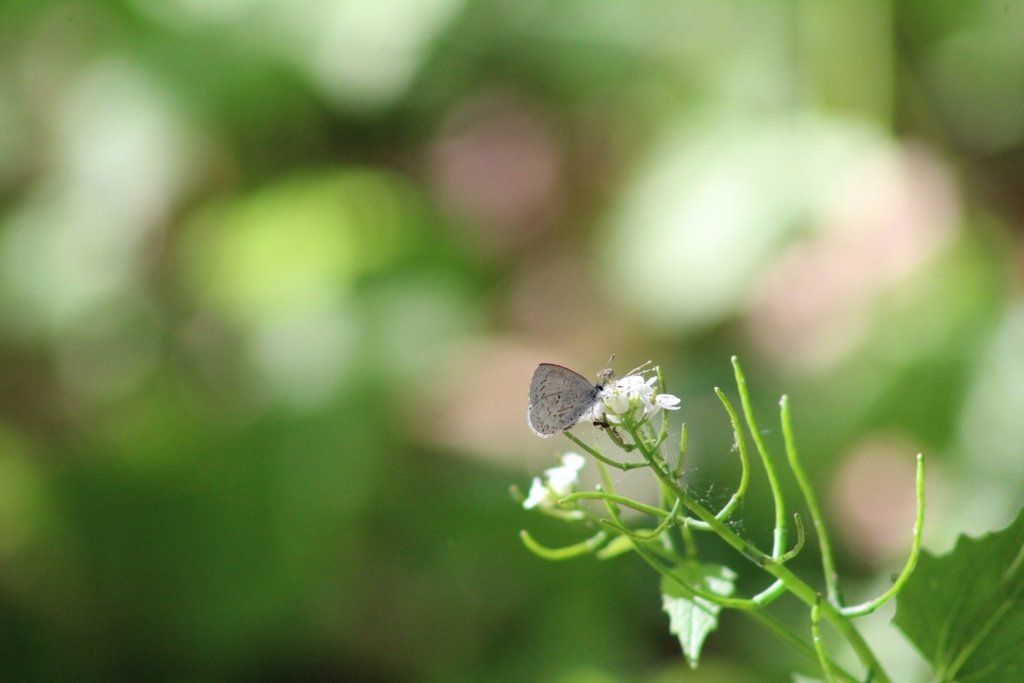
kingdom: Animalia
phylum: Arthropoda
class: Insecta
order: Lepidoptera
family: Lycaenidae
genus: Celastrina
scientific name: Celastrina ladon
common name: Spring Azure
